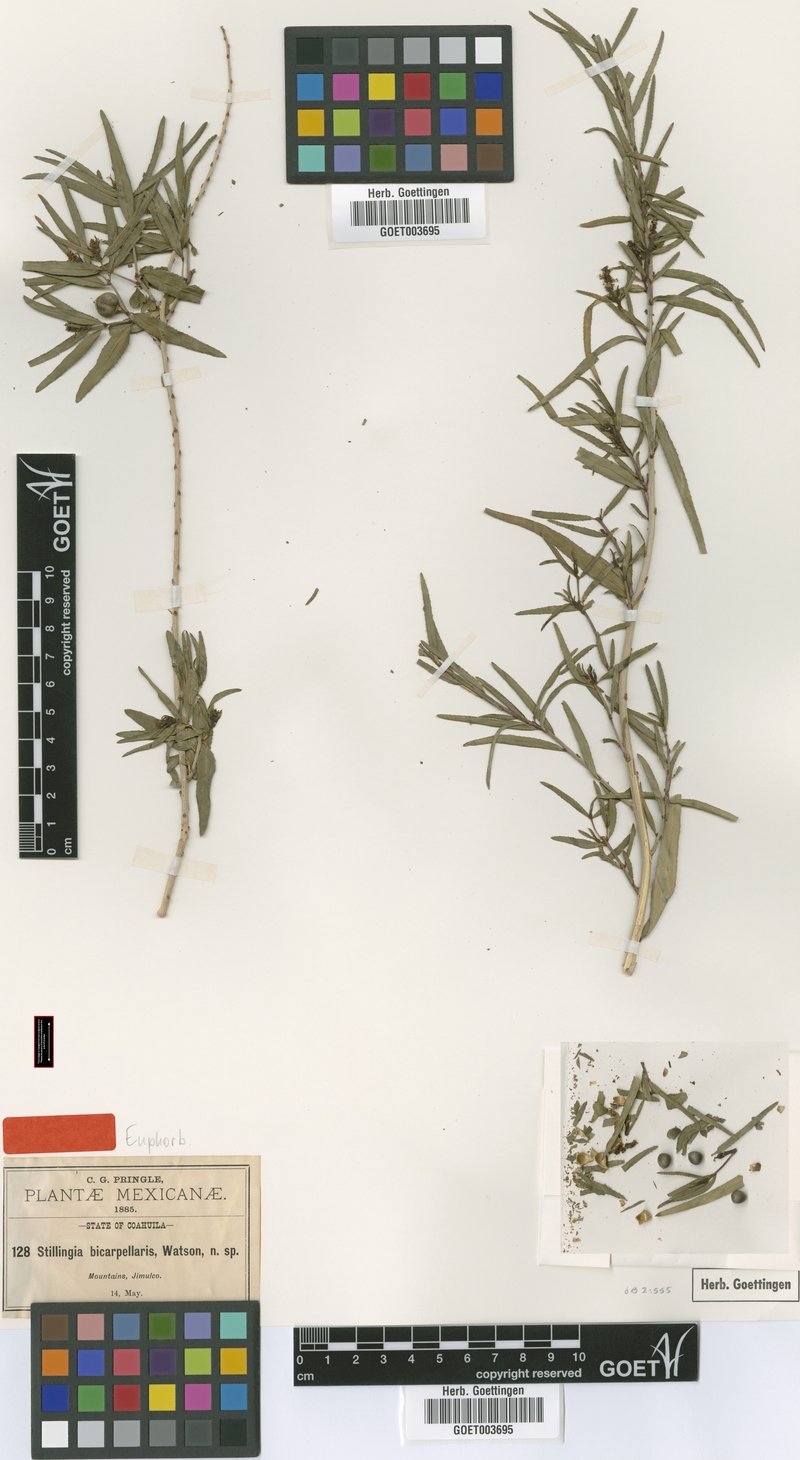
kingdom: Plantae
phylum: Tracheophyta
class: Magnoliopsida
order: Malpighiales
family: Euphorbiaceae
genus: Stillingia
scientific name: Stillingia bicarpellaris
